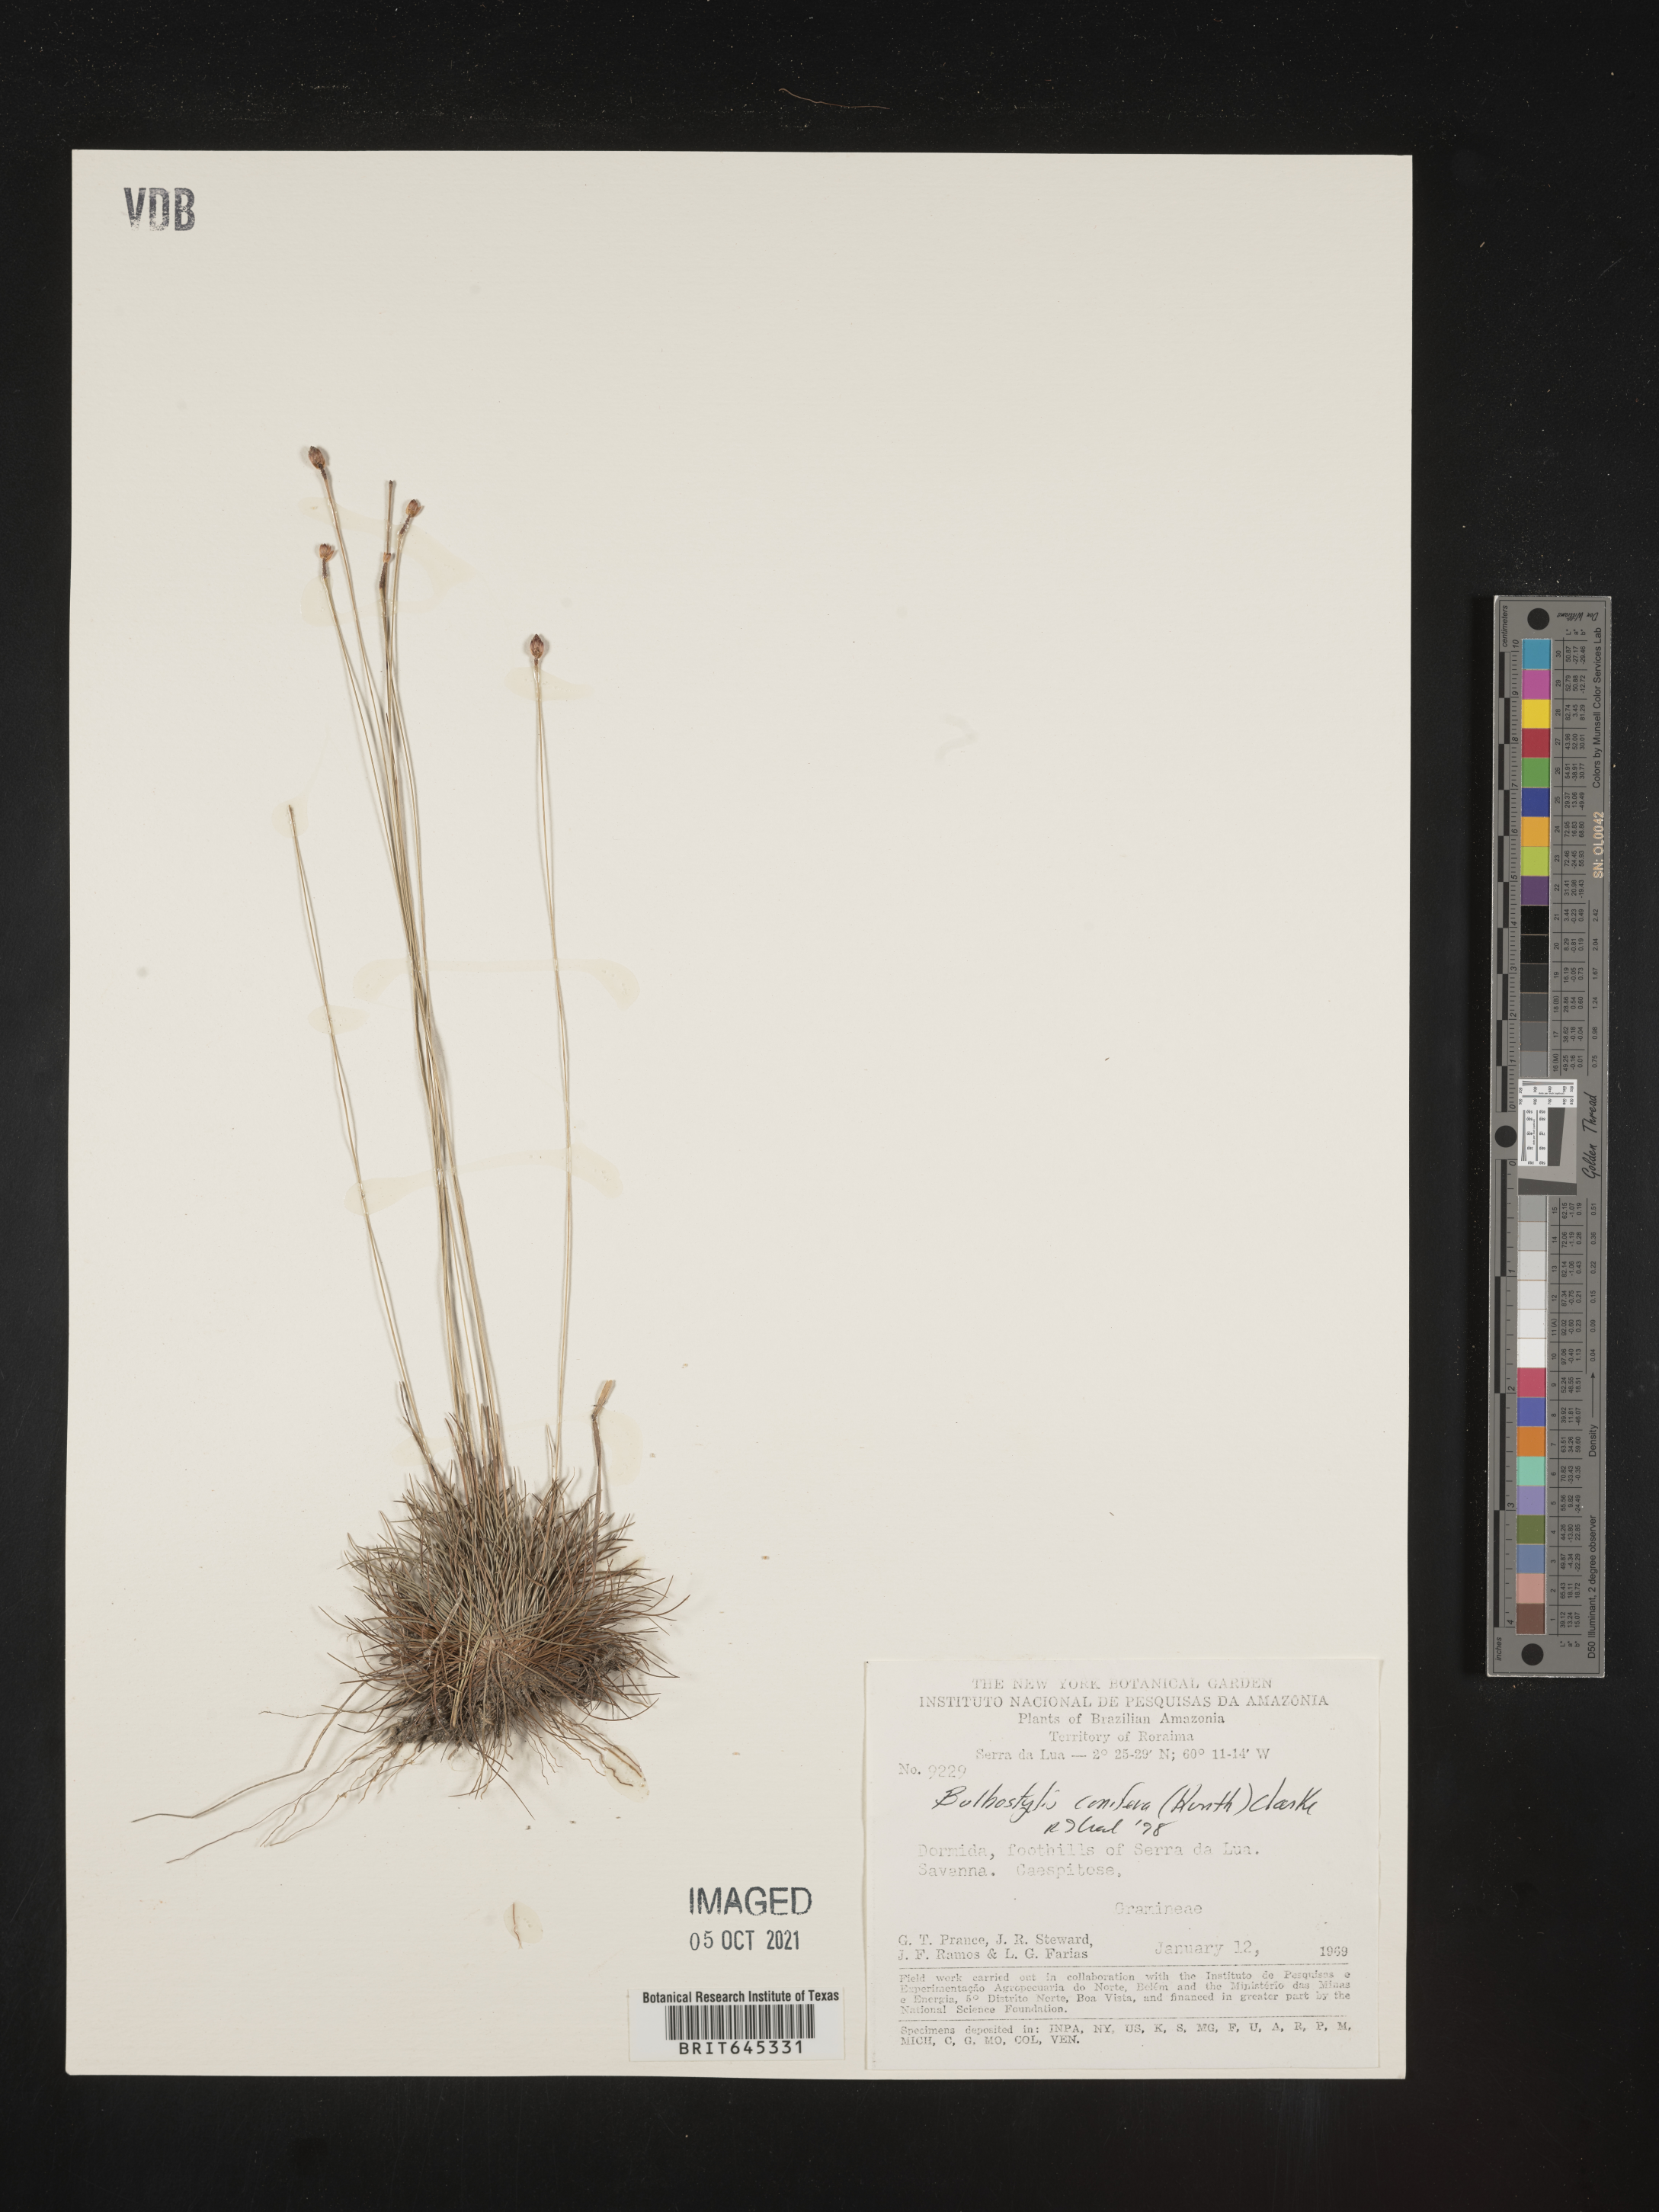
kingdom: Plantae
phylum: Tracheophyta
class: Liliopsida
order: Poales
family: Cyperaceae
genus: Bulbostylis
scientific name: Bulbostylis conifera
